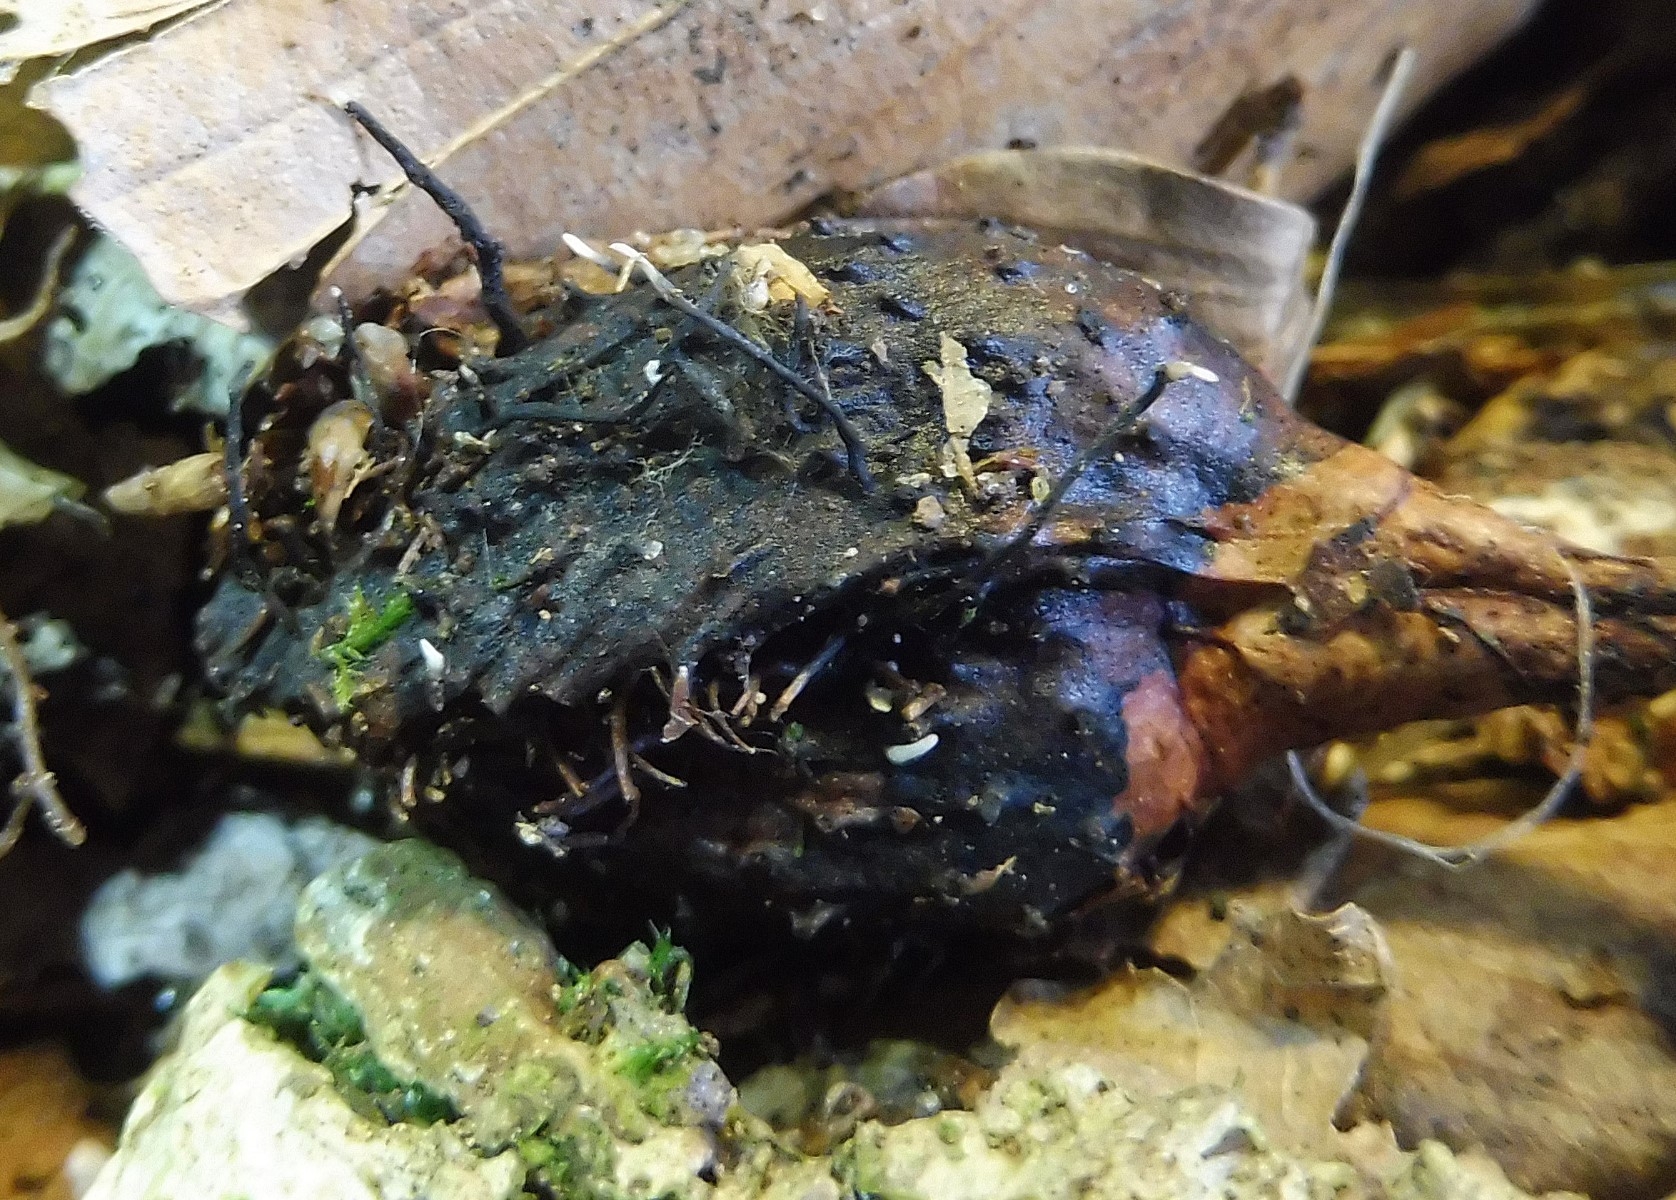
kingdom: Fungi
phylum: Ascomycota
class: Sordariomycetes
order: Xylariales
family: Xylariaceae
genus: Xylaria
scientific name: Xylaria carpophila
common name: bogskål-stødsvamp
